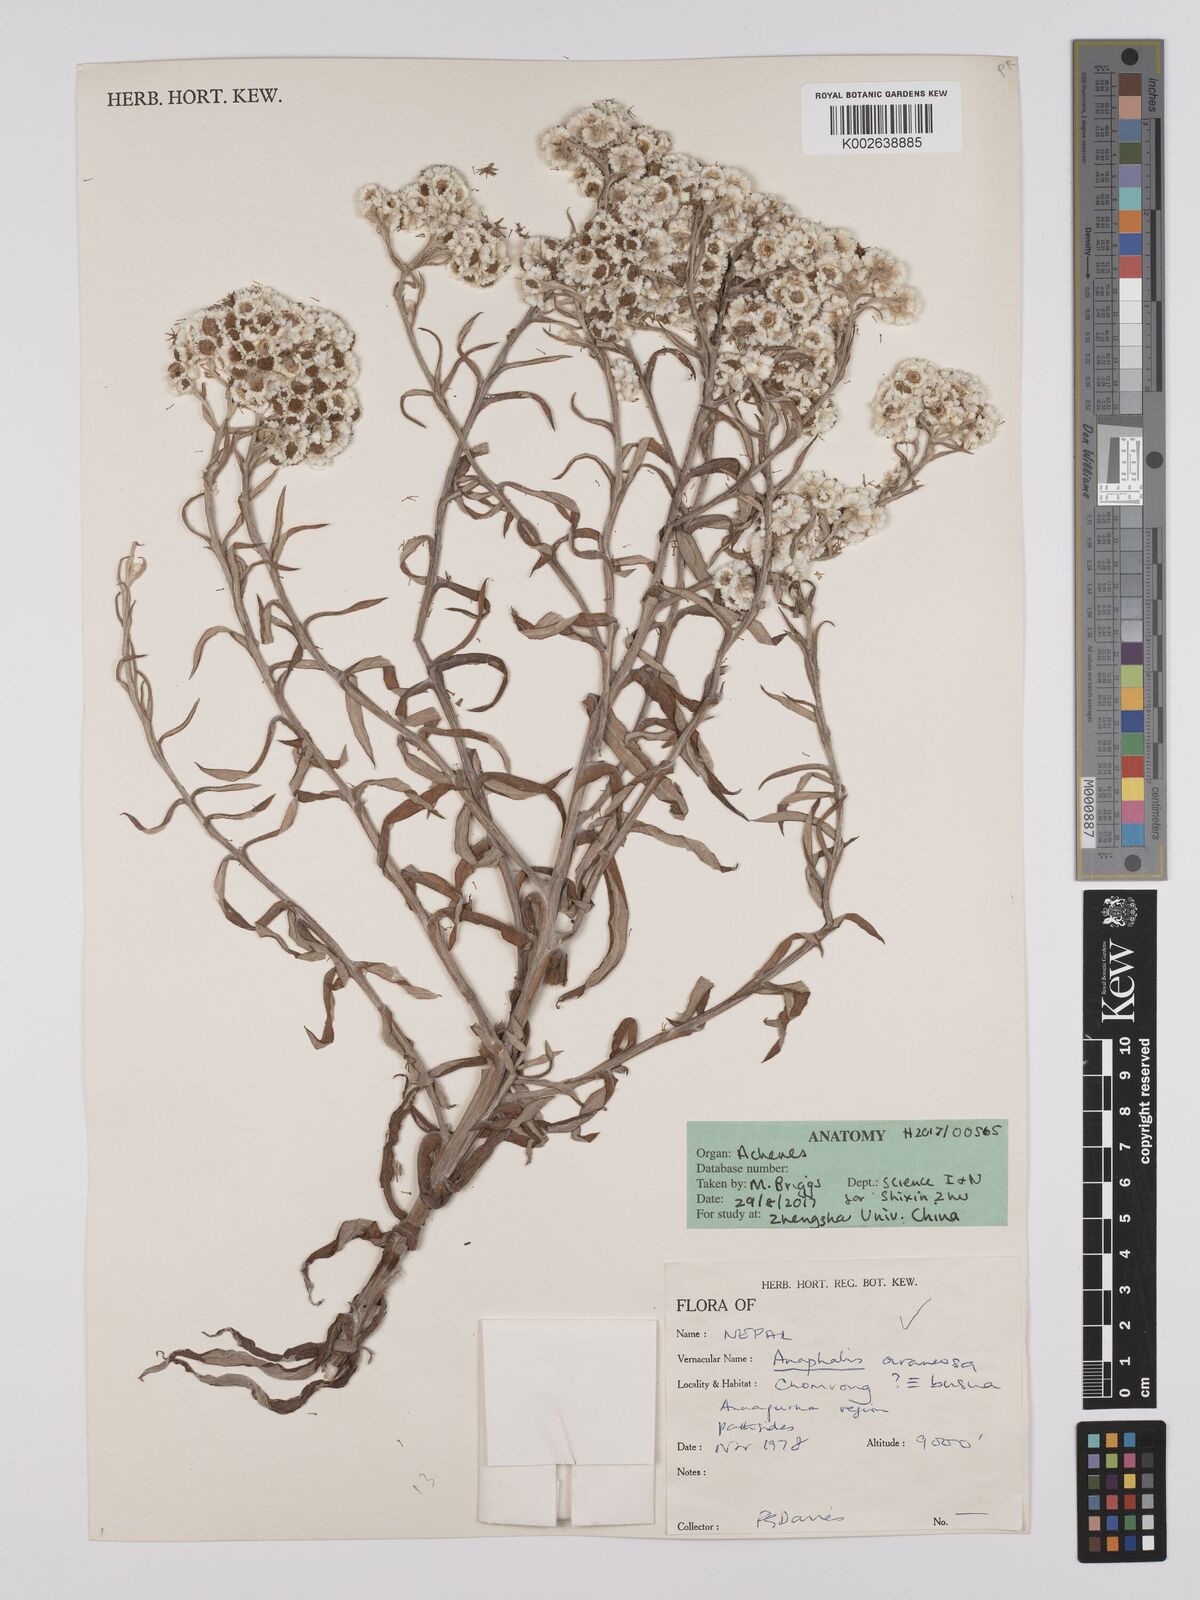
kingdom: Plantae
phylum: Tracheophyta
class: Magnoliopsida
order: Asterales
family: Asteraceae
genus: Anaphalis
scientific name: Anaphalis busua
